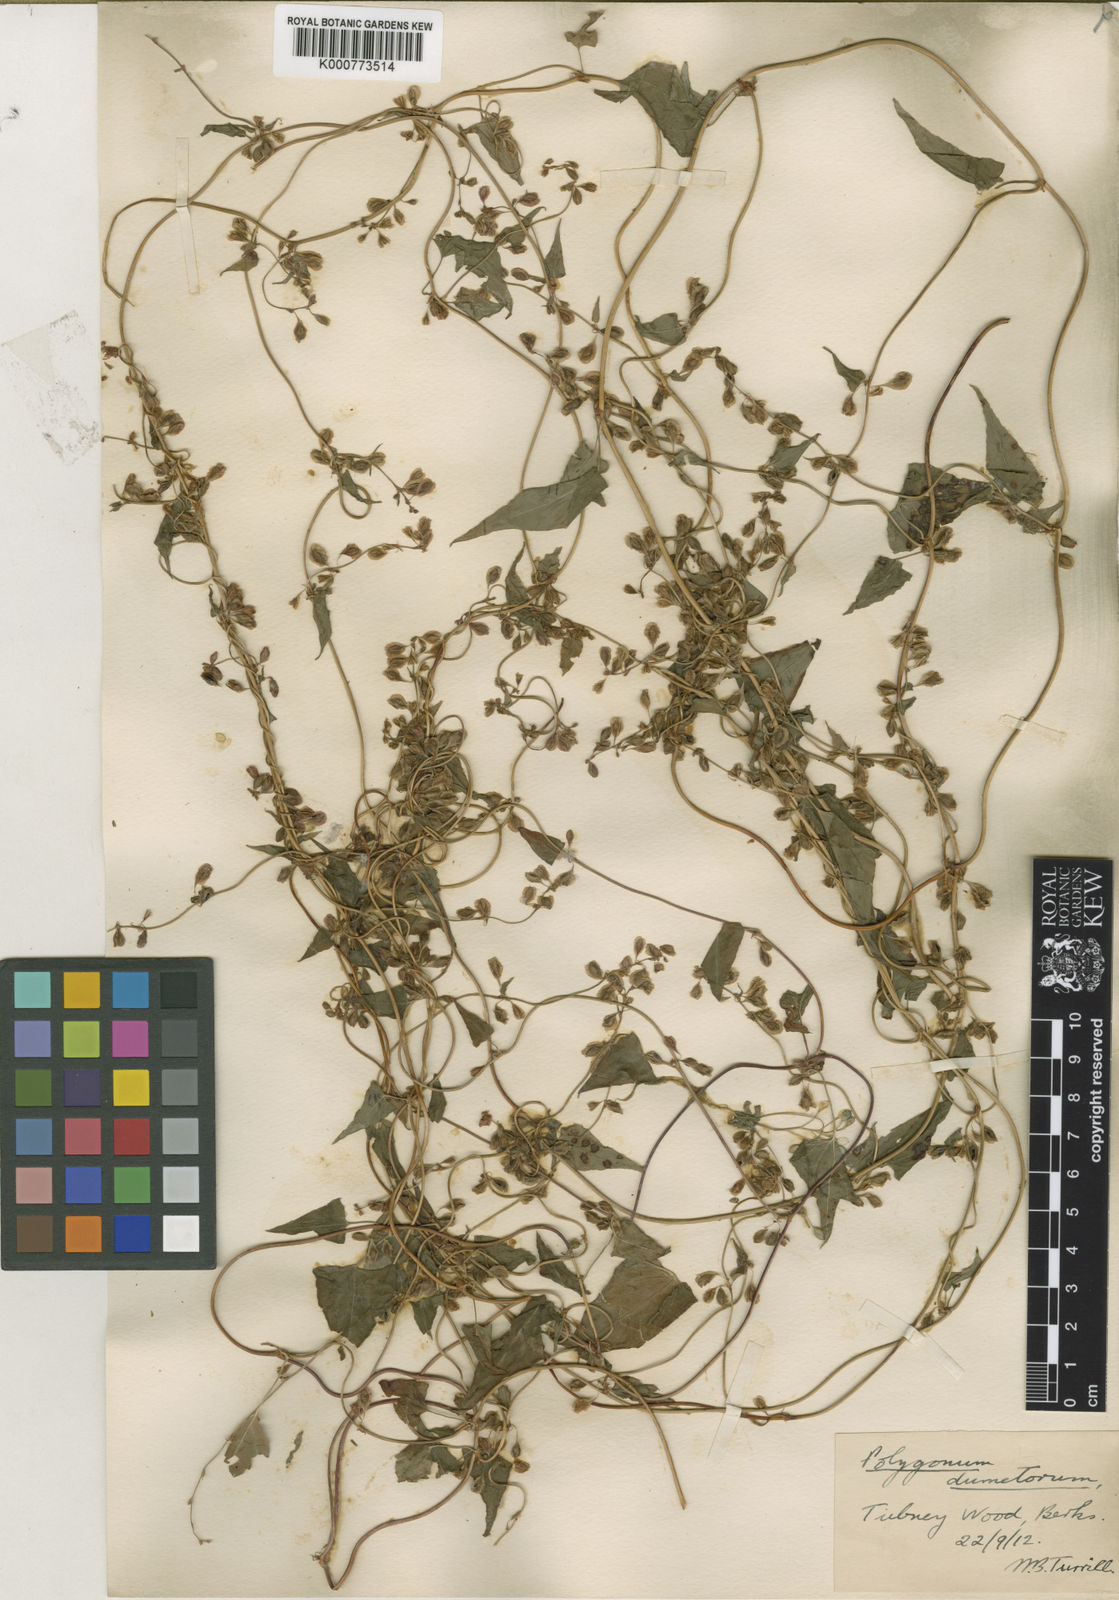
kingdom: Plantae
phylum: Tracheophyta
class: Magnoliopsida
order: Caryophyllales
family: Polygonaceae
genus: Fallopia
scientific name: Fallopia dumetorum
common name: Copse-bindweed
